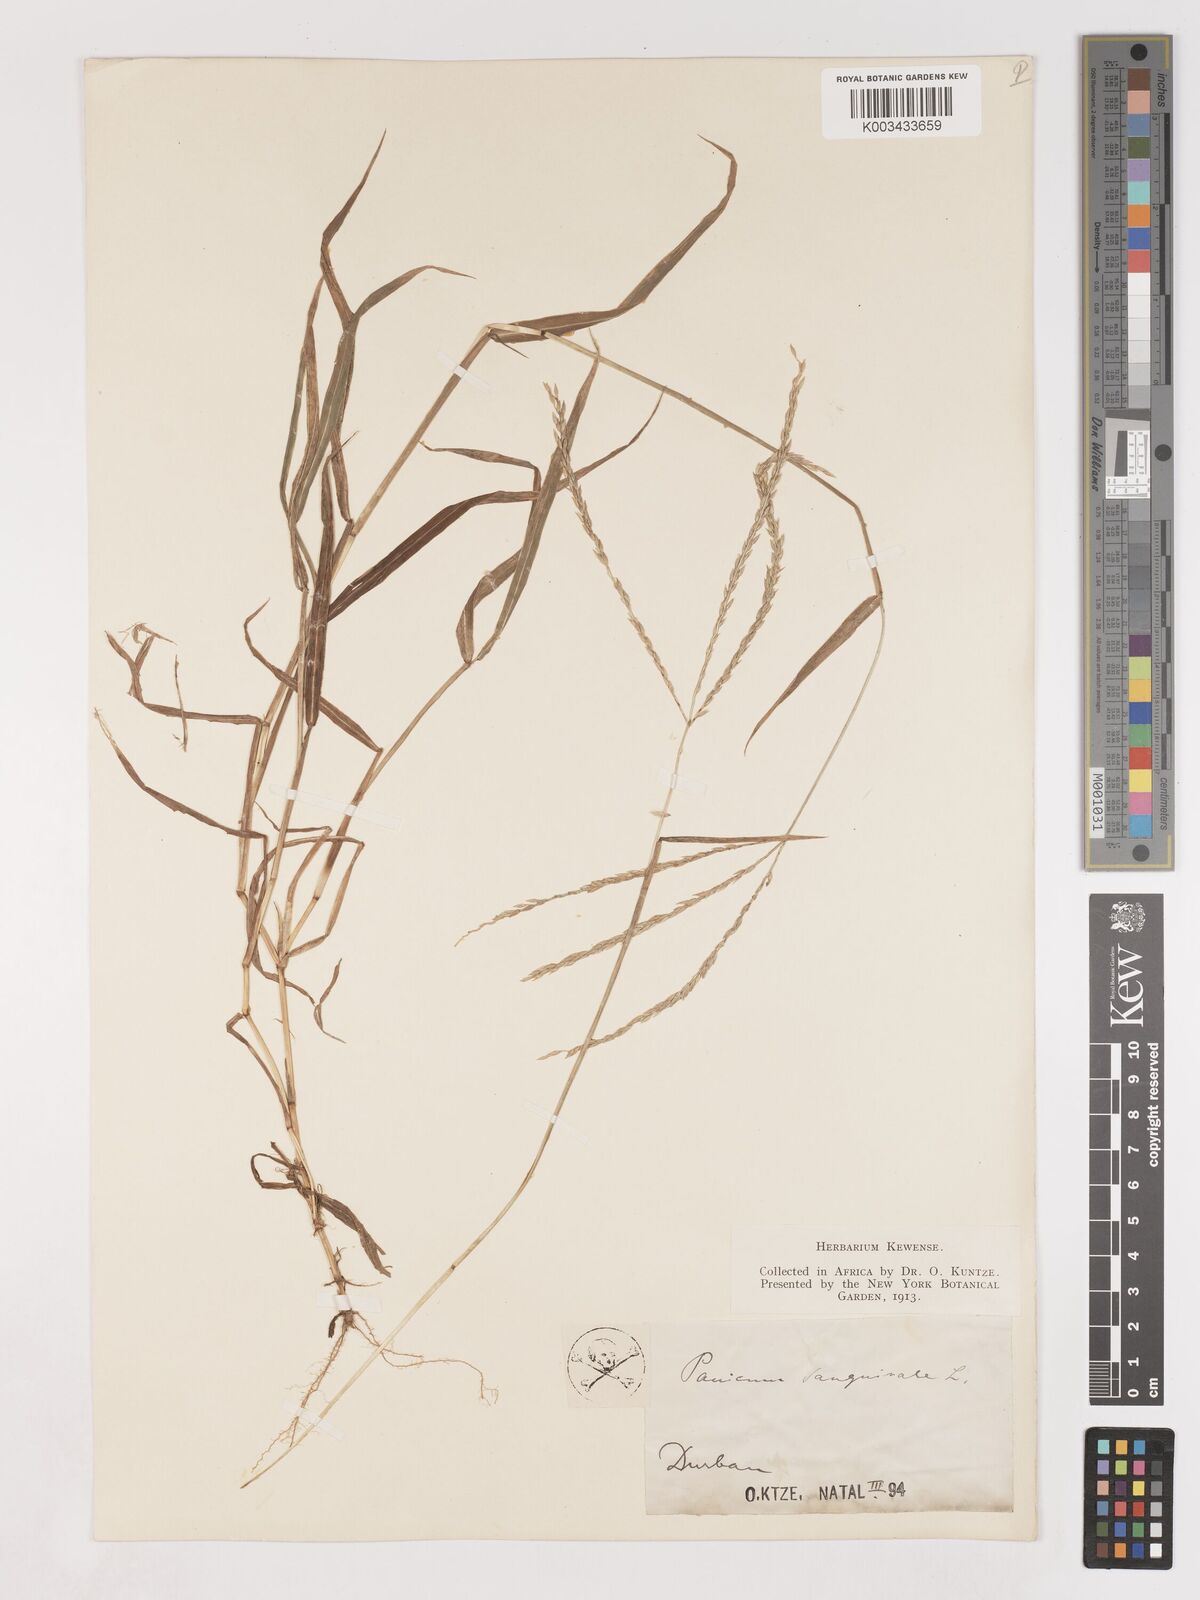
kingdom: Plantae
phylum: Tracheophyta
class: Liliopsida
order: Poales
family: Poaceae
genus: Digitaria
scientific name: Digitaria diversinervis
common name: Richmond finger grass
